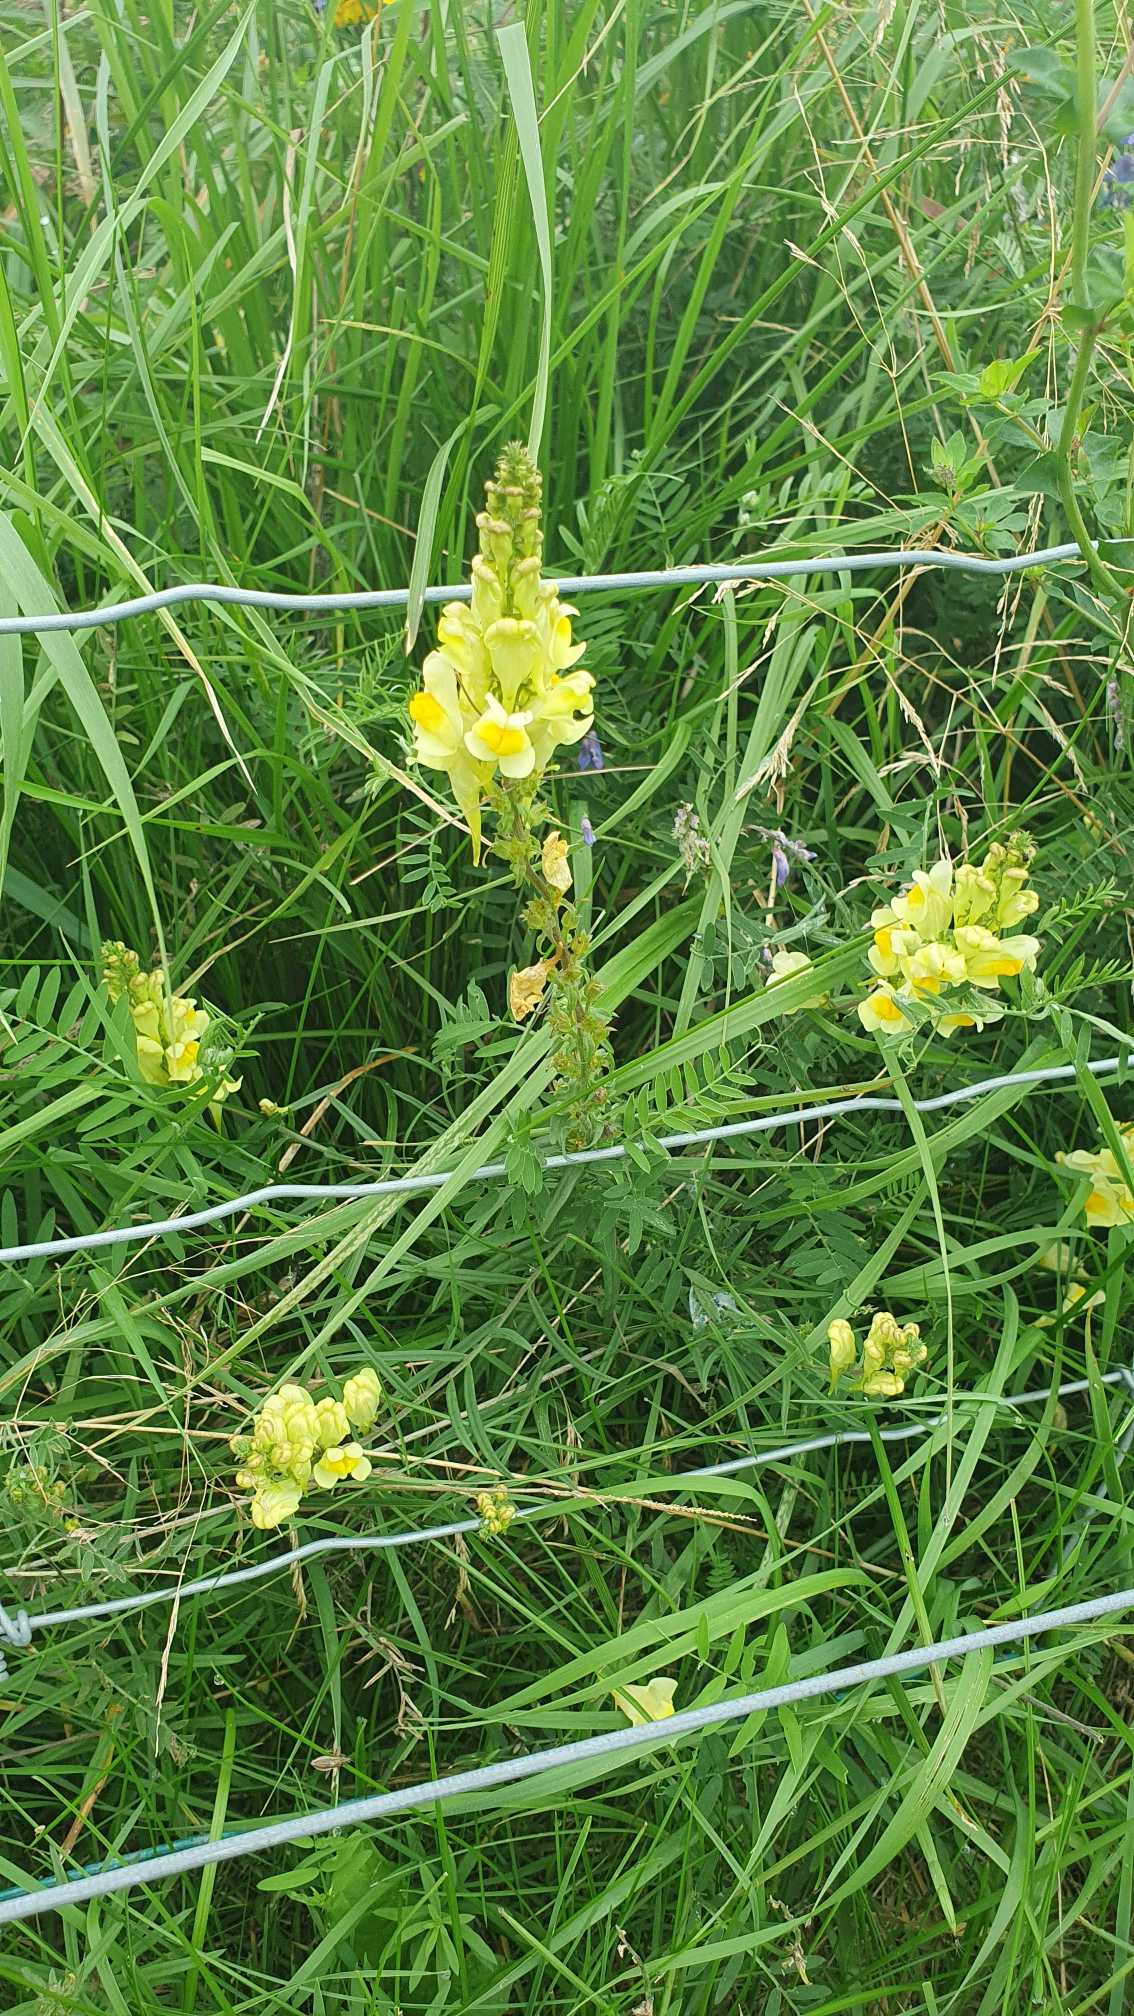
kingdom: Plantae
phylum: Tracheophyta
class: Magnoliopsida
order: Lamiales
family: Plantaginaceae
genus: Linaria
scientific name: Linaria vulgaris
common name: Almindelig torskemund
